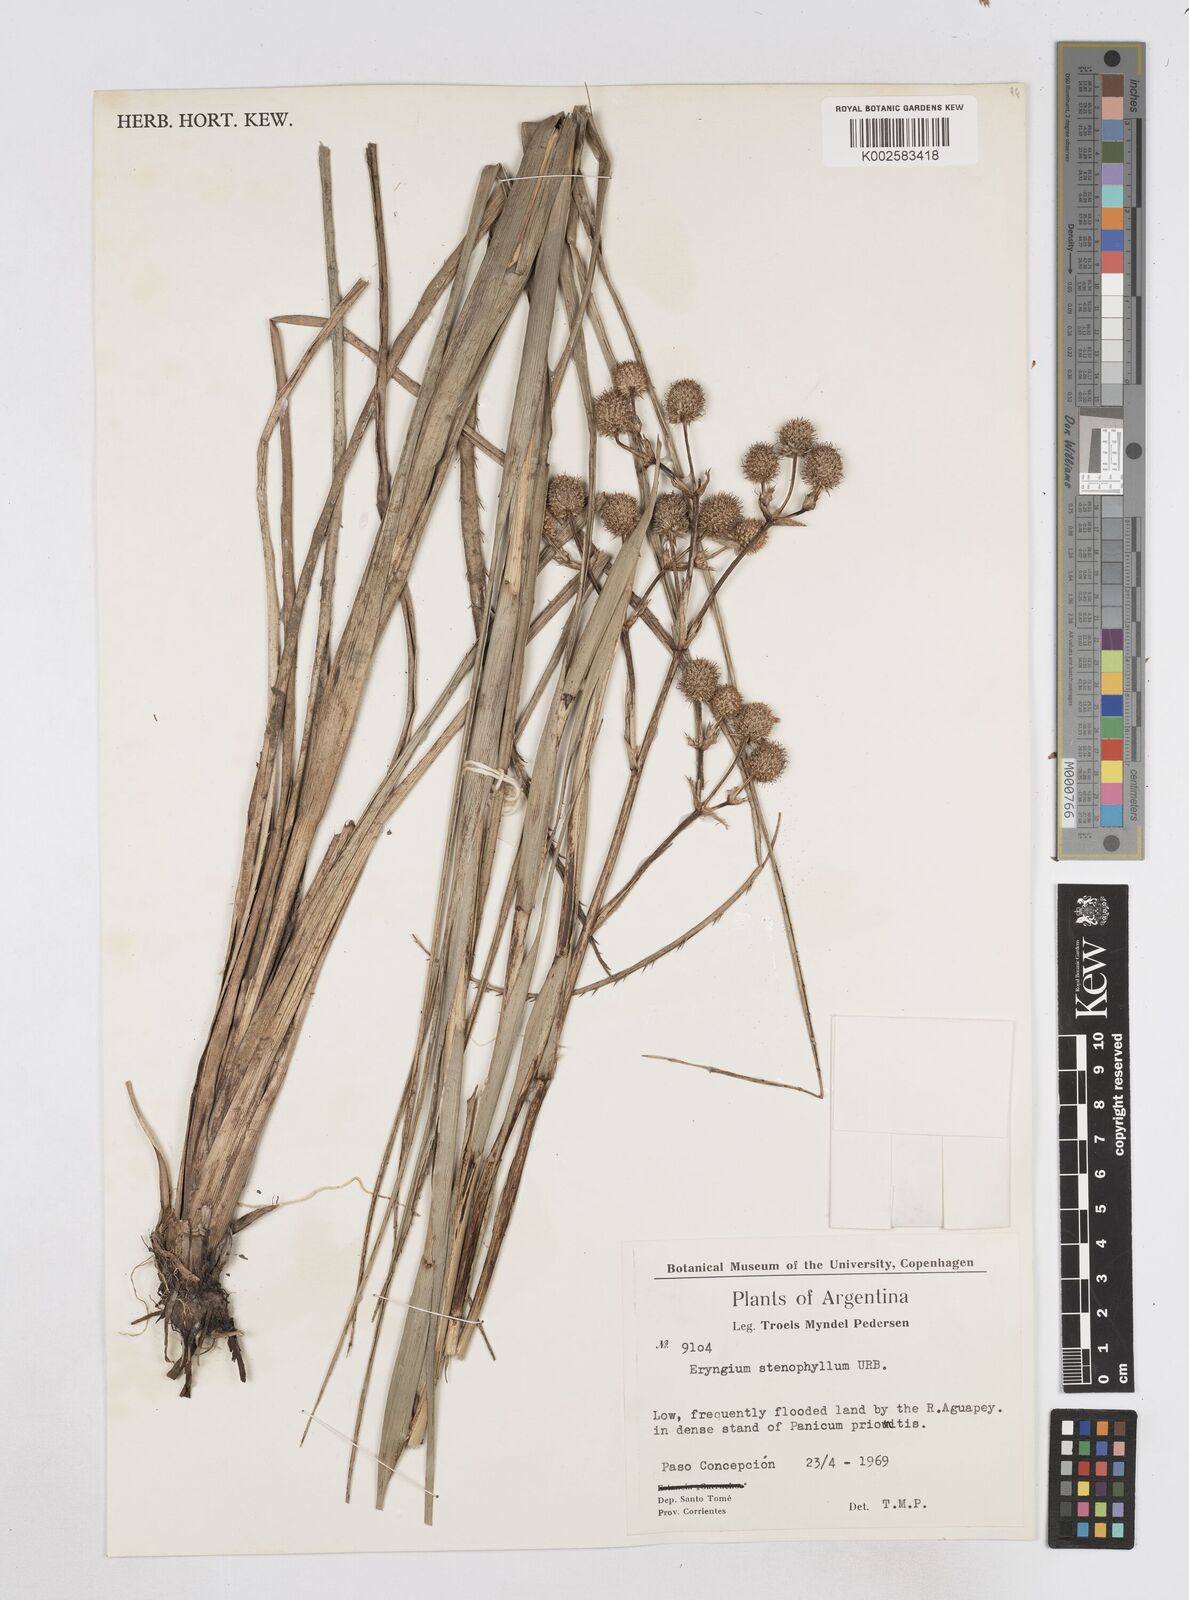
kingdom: Plantae
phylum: Tracheophyta
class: Magnoliopsida
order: Apiales
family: Apiaceae
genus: Eryngium
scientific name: Eryngium stenophyllum
